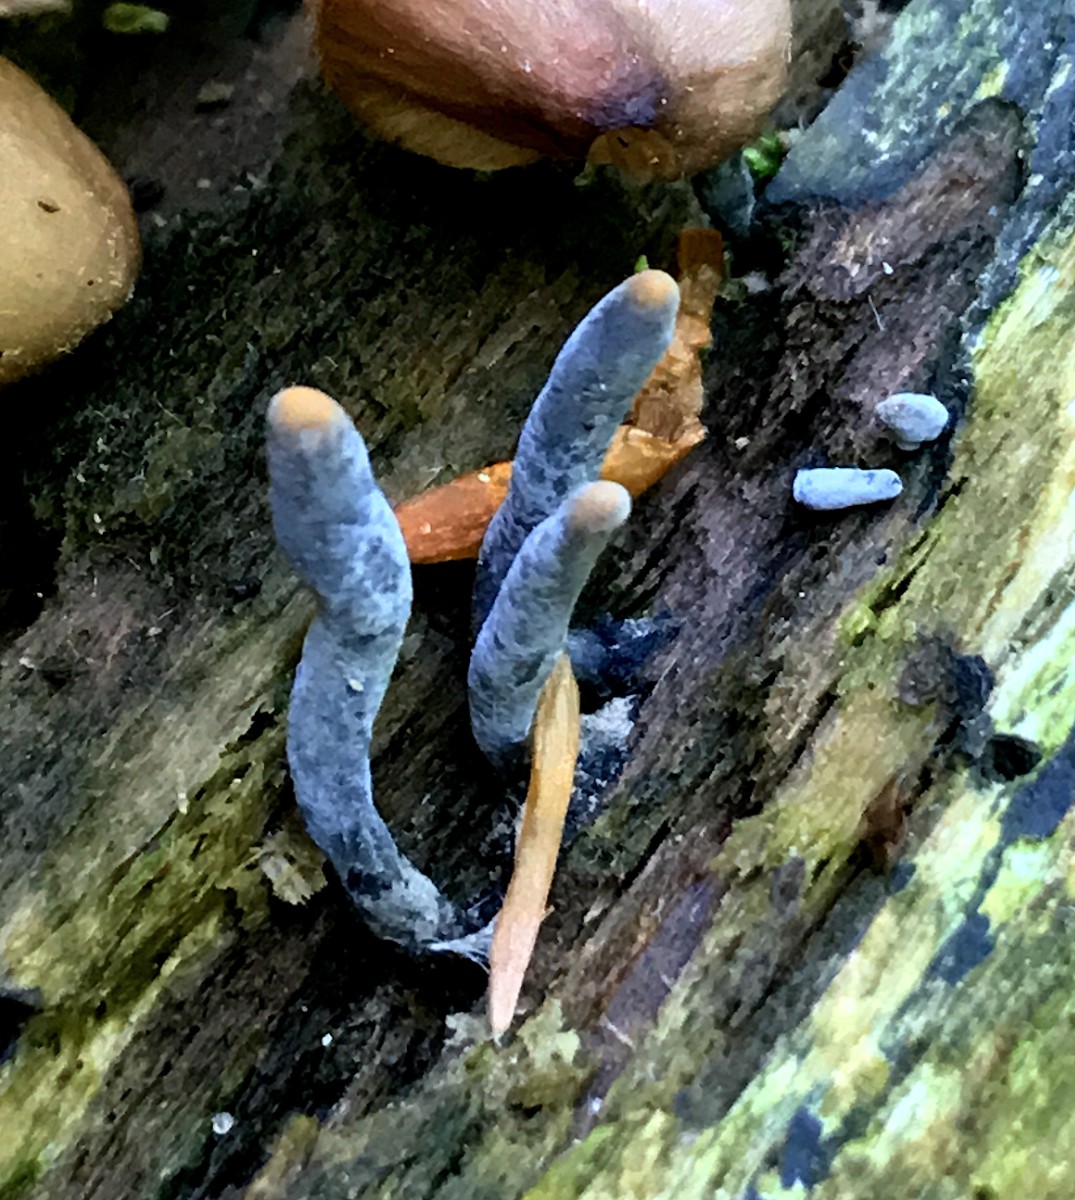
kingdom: Fungi
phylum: Ascomycota
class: Sordariomycetes
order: Xylariales
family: Xylariaceae
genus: Xylaria
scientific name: Xylaria longipes
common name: slank stødsvamp
